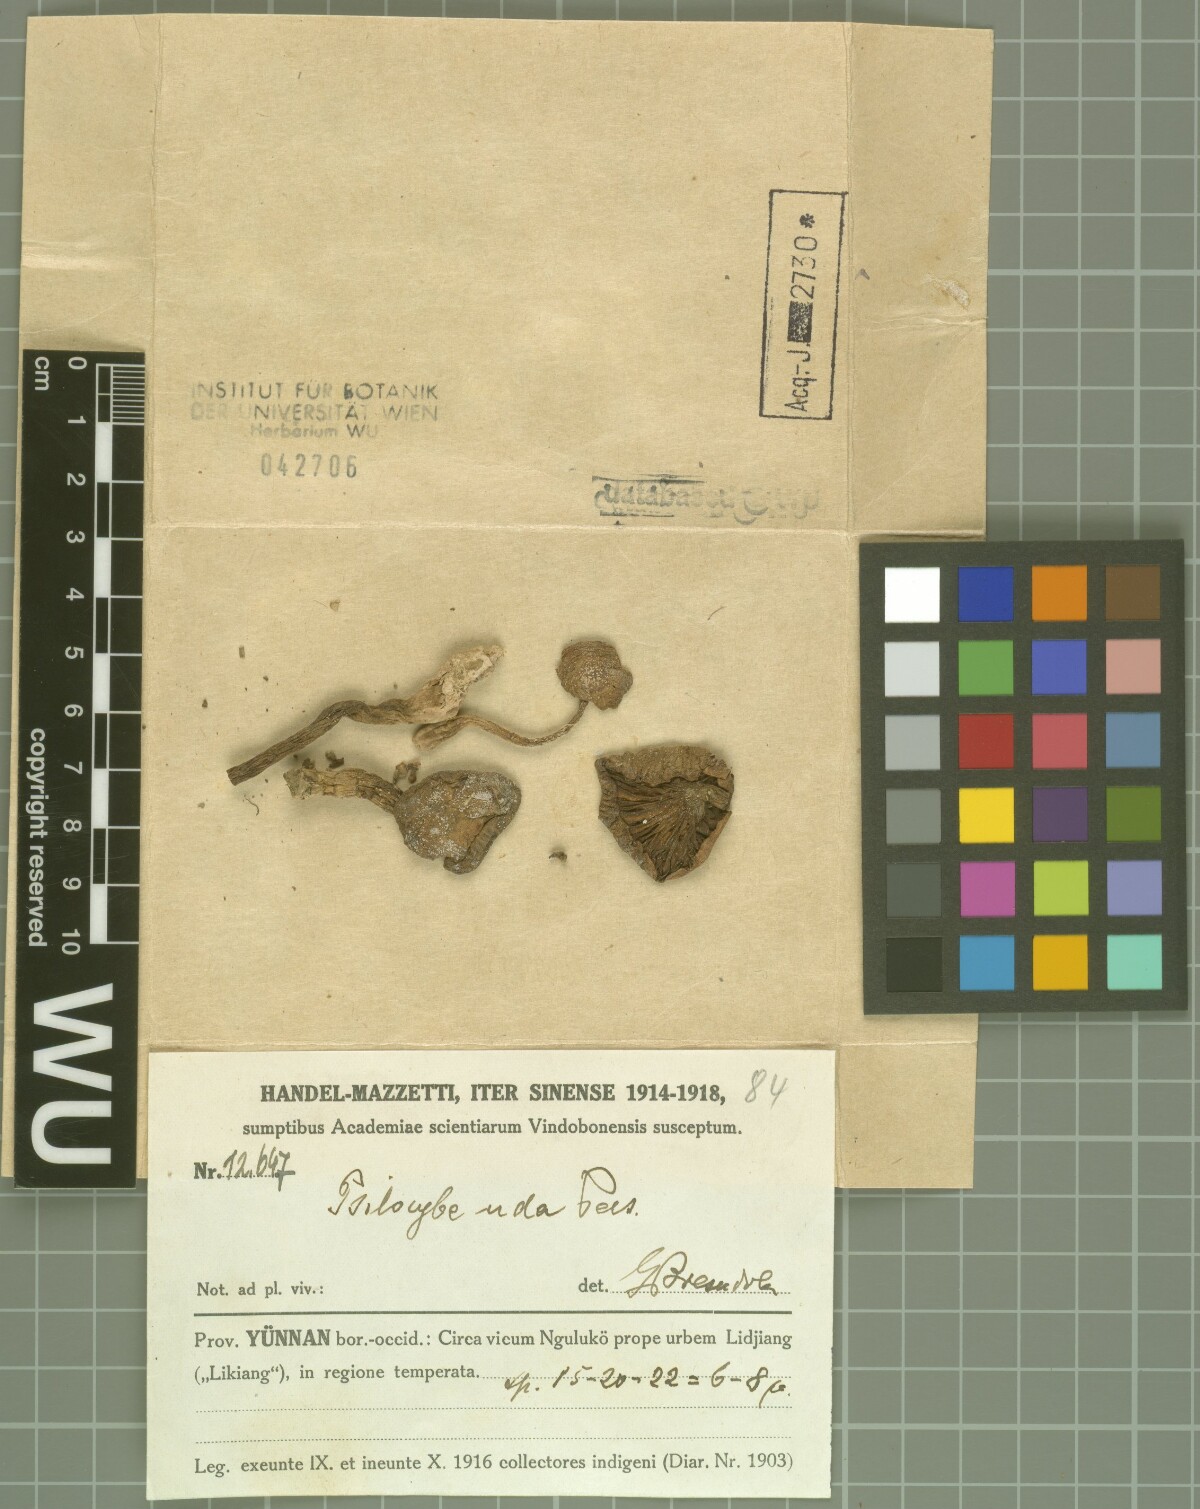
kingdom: Fungi
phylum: Basidiomycota
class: Agaricomycetes
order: Agaricales
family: Strophariaceae
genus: Bogbodia
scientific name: Bogbodia uda
